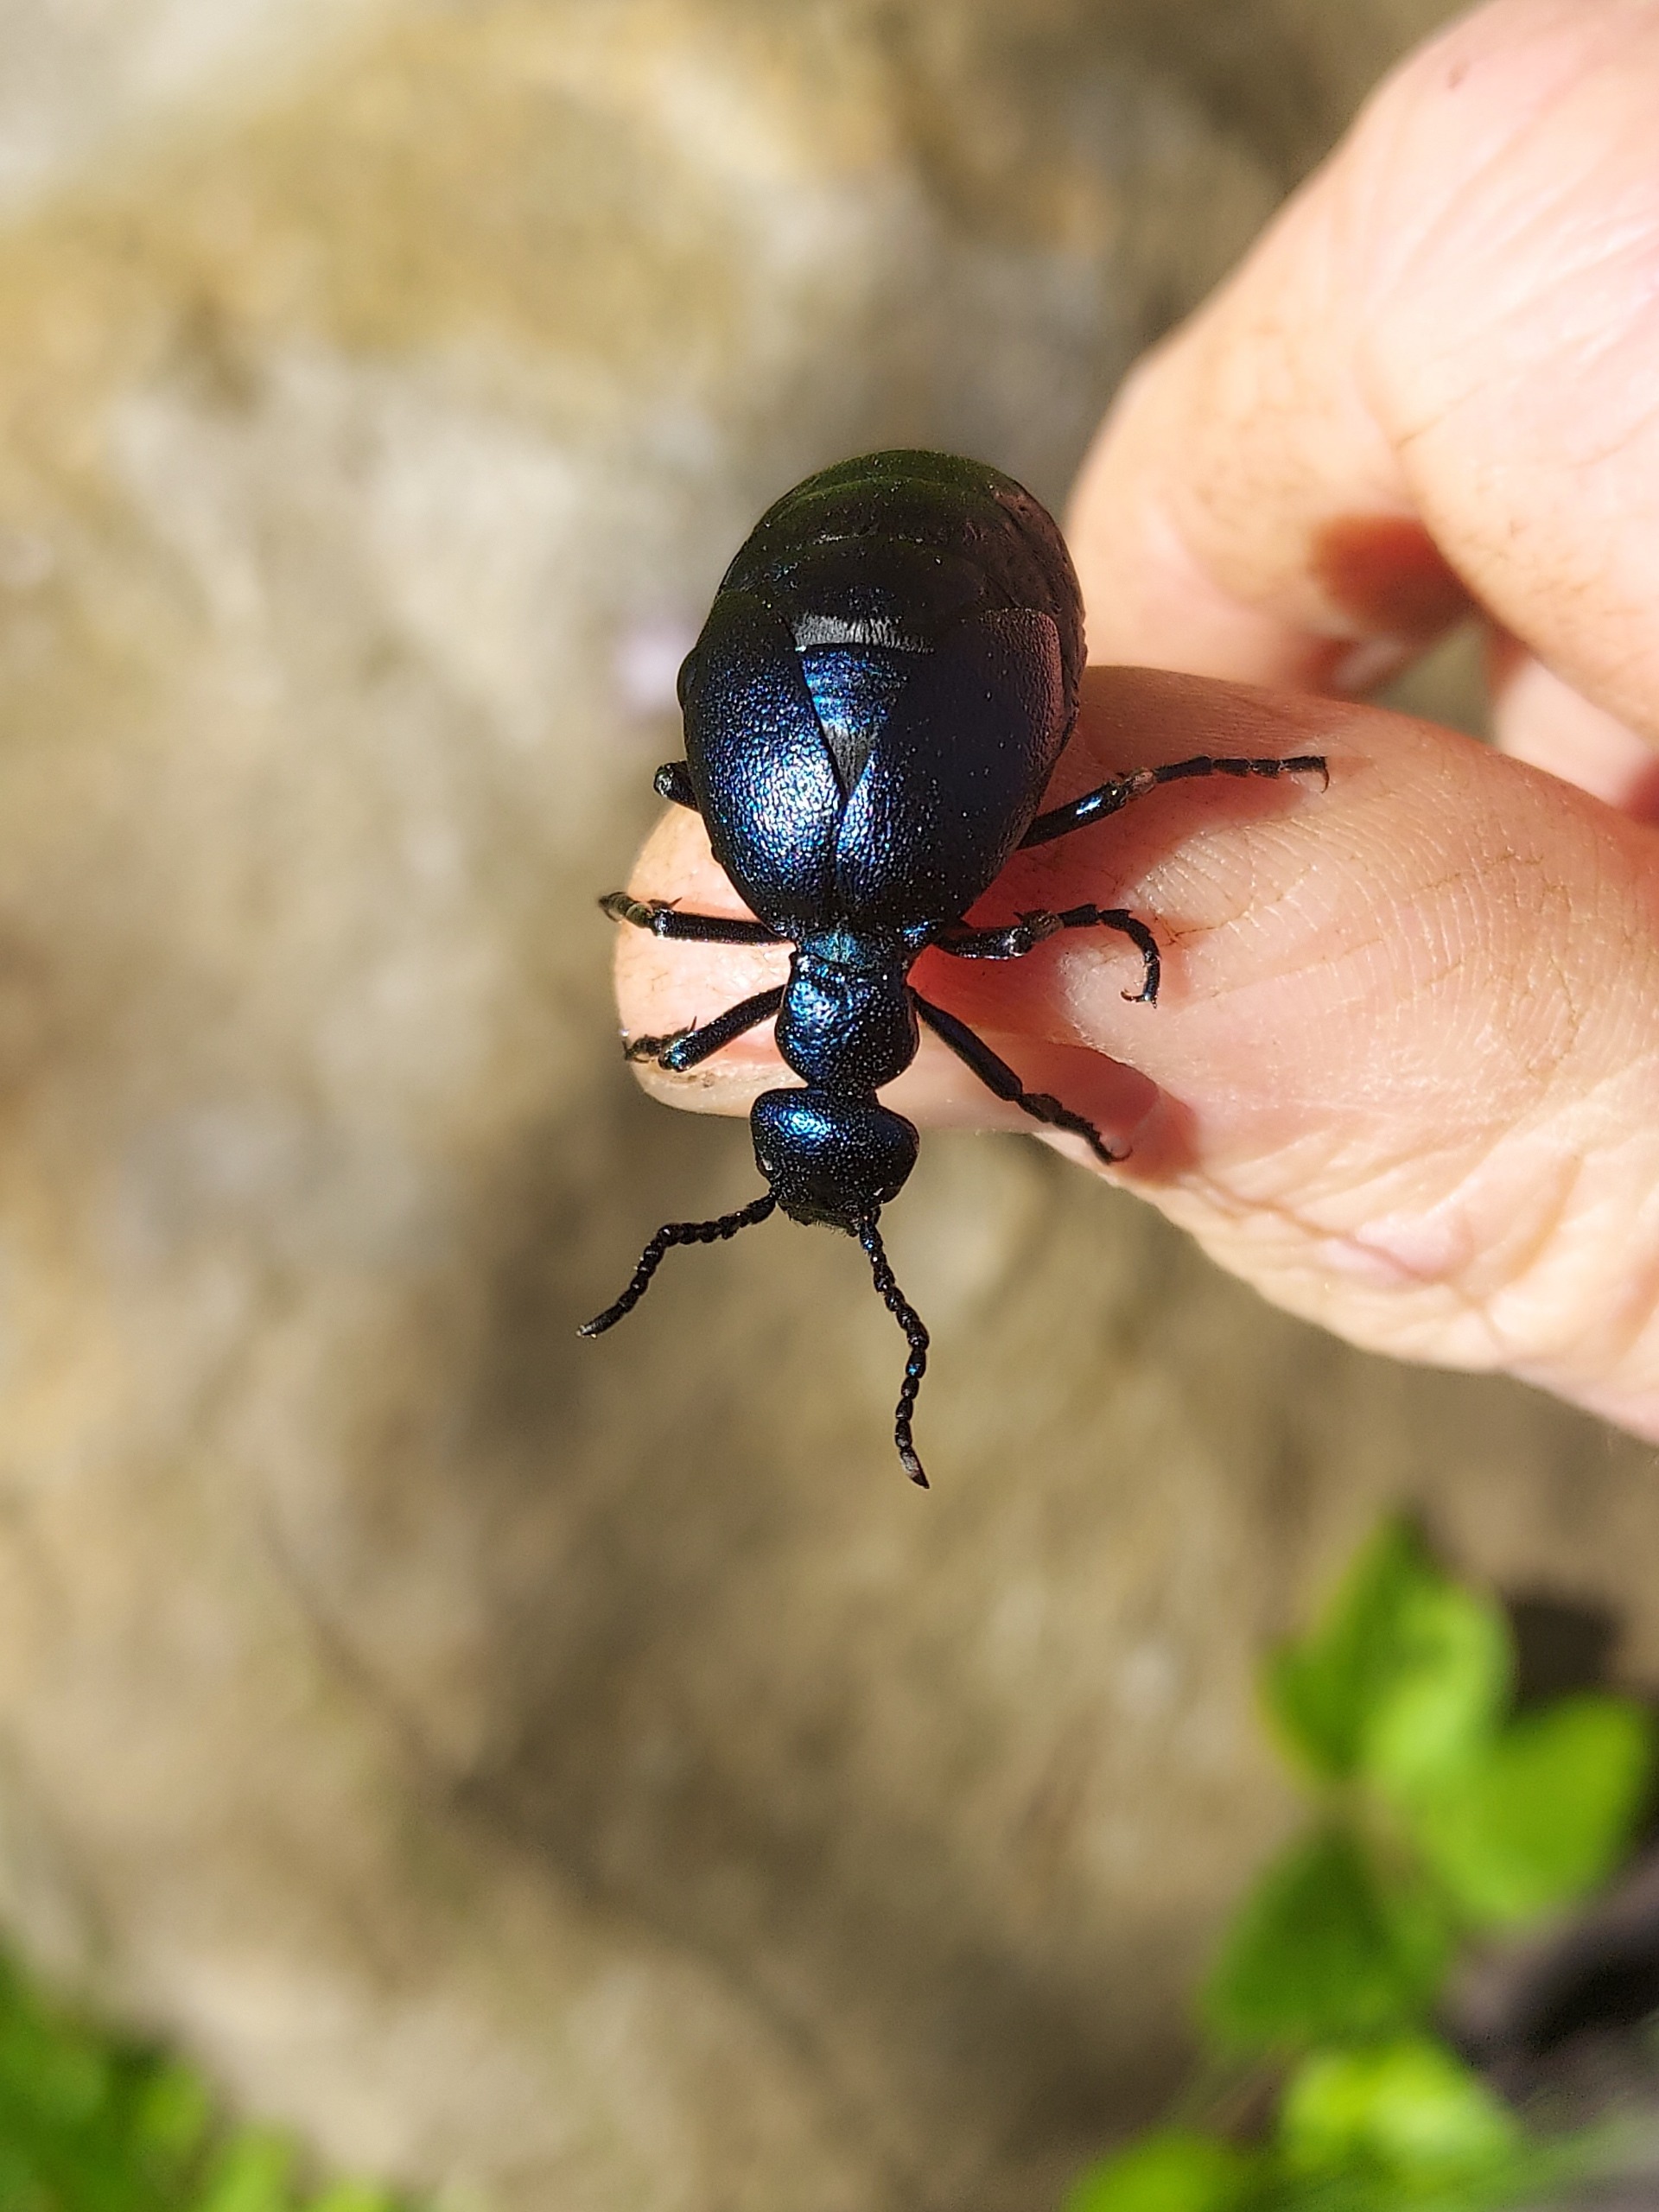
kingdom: Animalia
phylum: Arthropoda
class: Insecta
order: Coleoptera
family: Meloidae
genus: Meloe
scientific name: Meloe violaceus
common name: Blå oliebille
